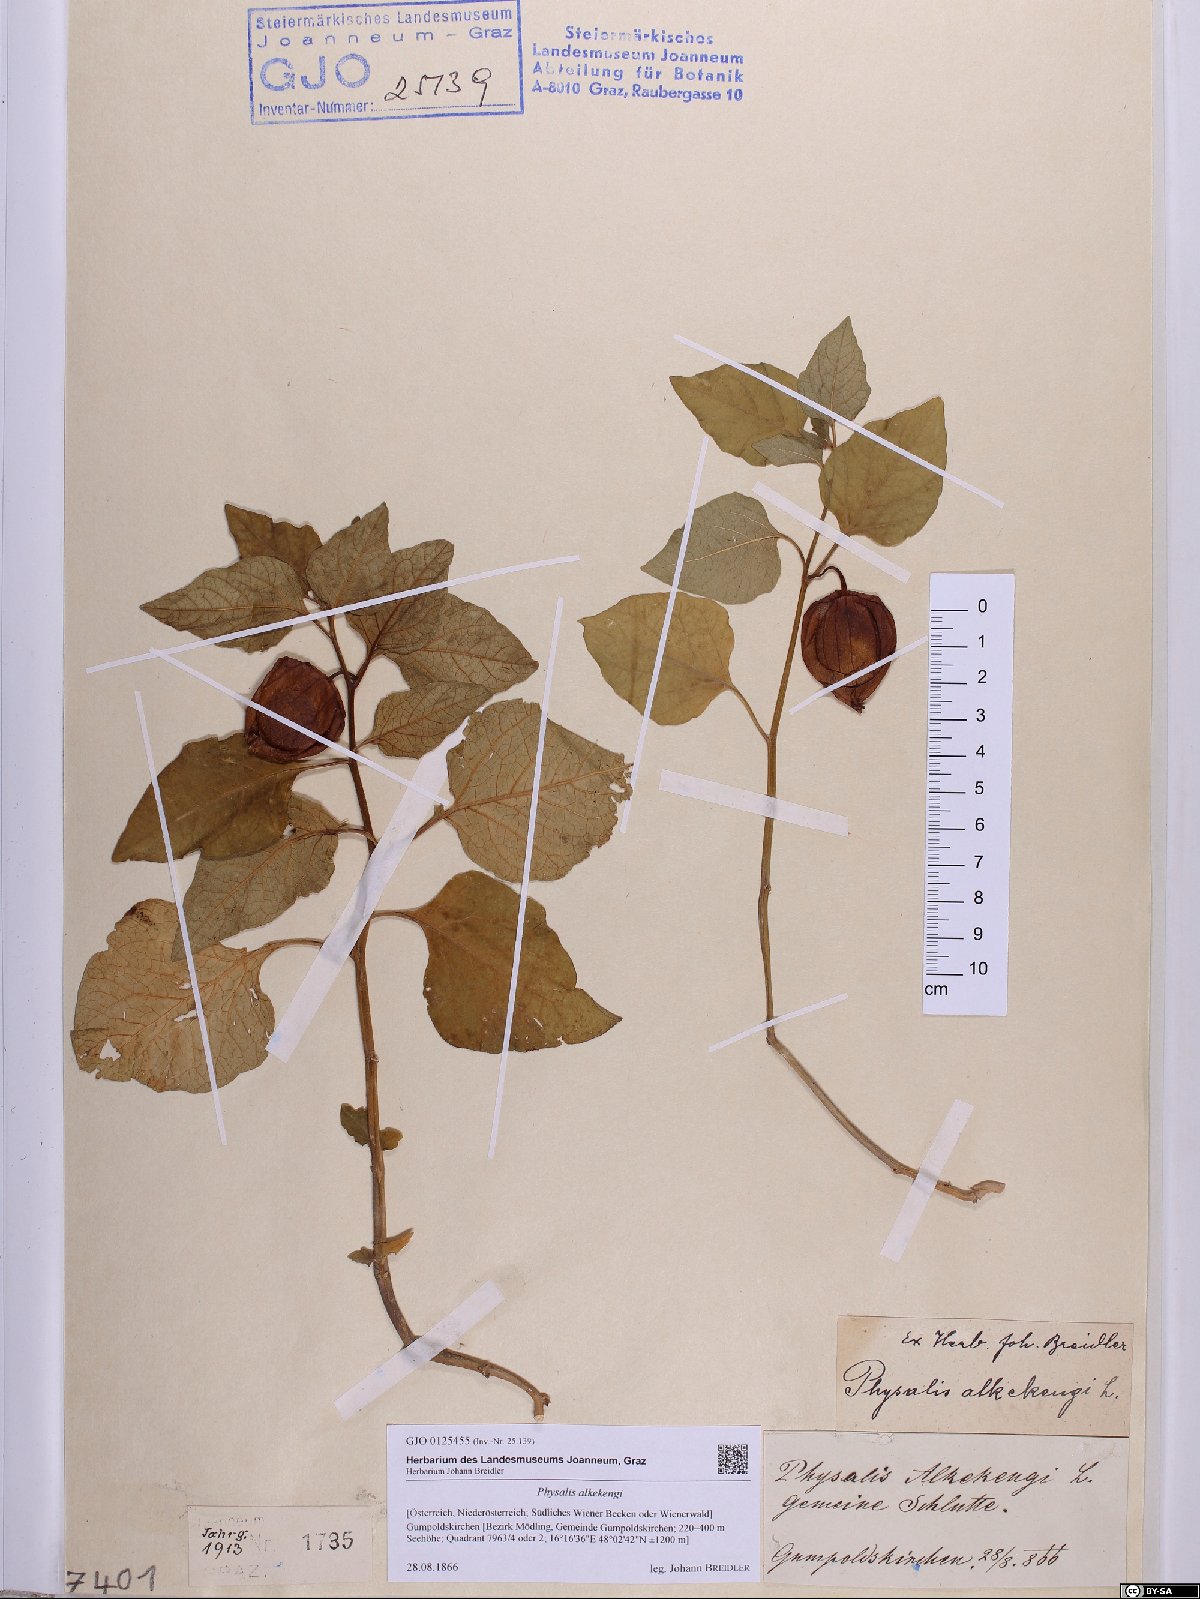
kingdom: Plantae
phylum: Tracheophyta
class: Magnoliopsida
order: Solanales
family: Solanaceae
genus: Alkekengi
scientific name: Alkekengi officinarum
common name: Japanese-lantern
